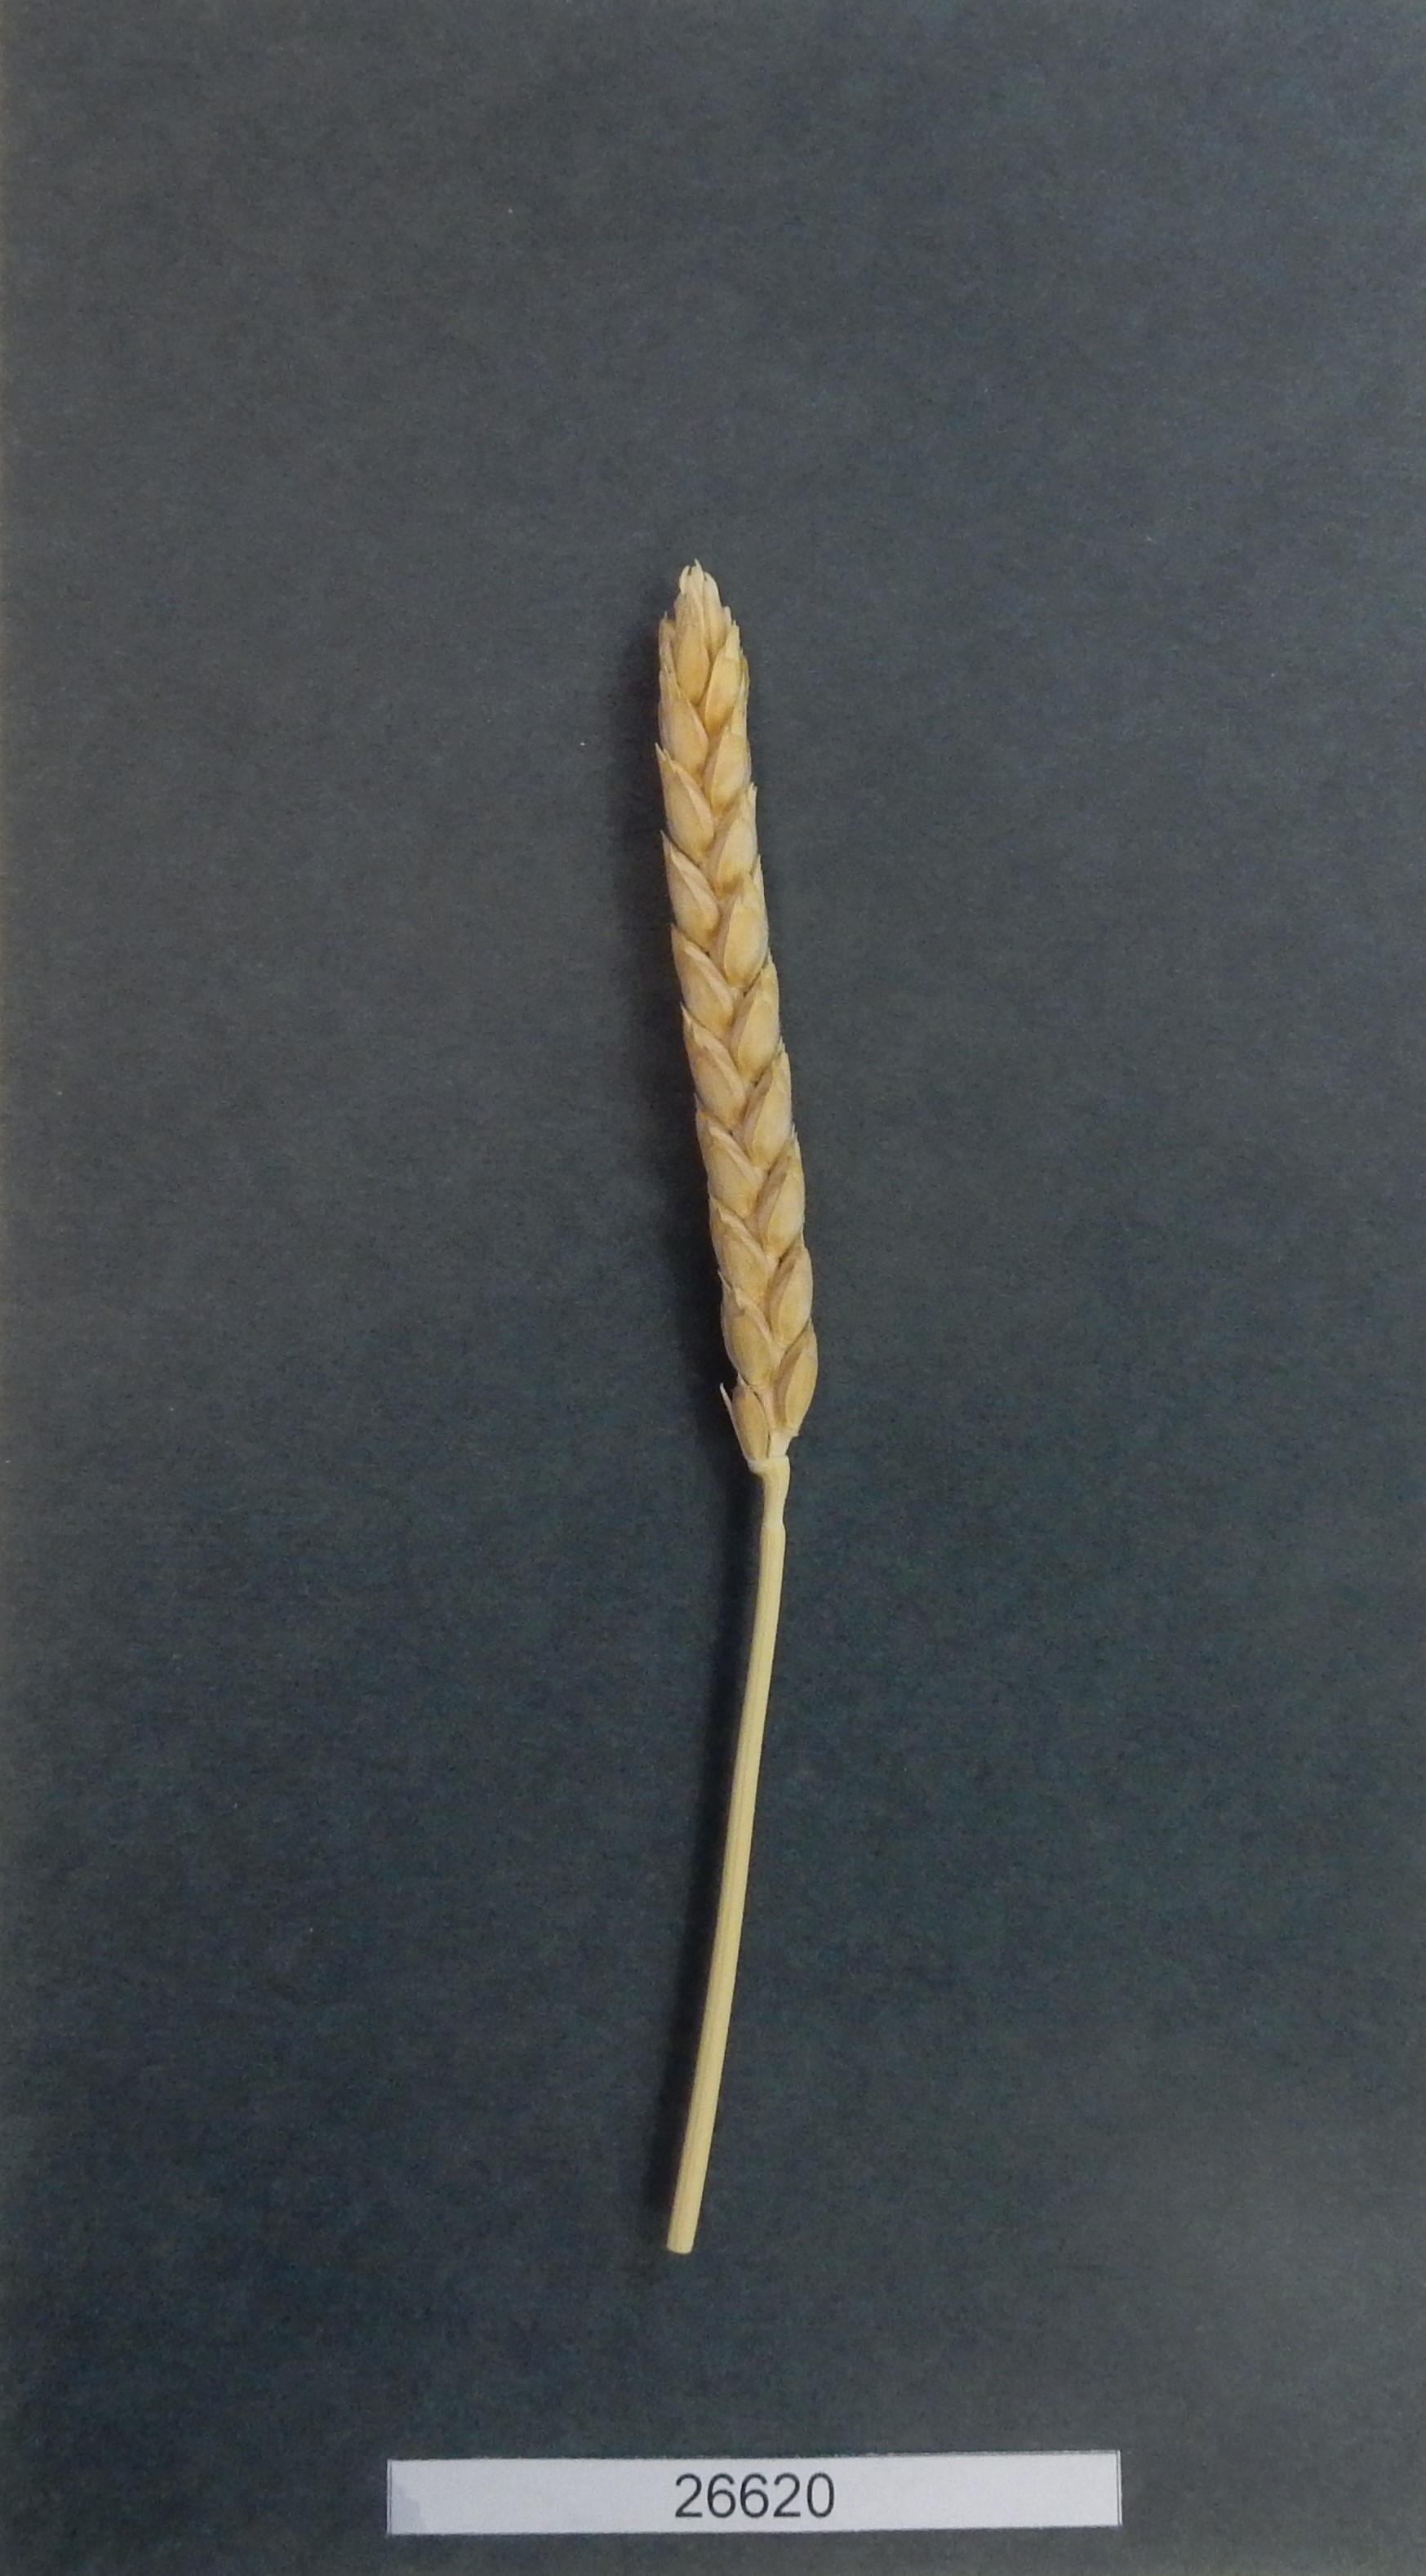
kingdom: Plantae
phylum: Tracheophyta
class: Liliopsida
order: Poales
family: Poaceae
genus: Triticum
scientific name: Triticum turgidum
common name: Wheat
